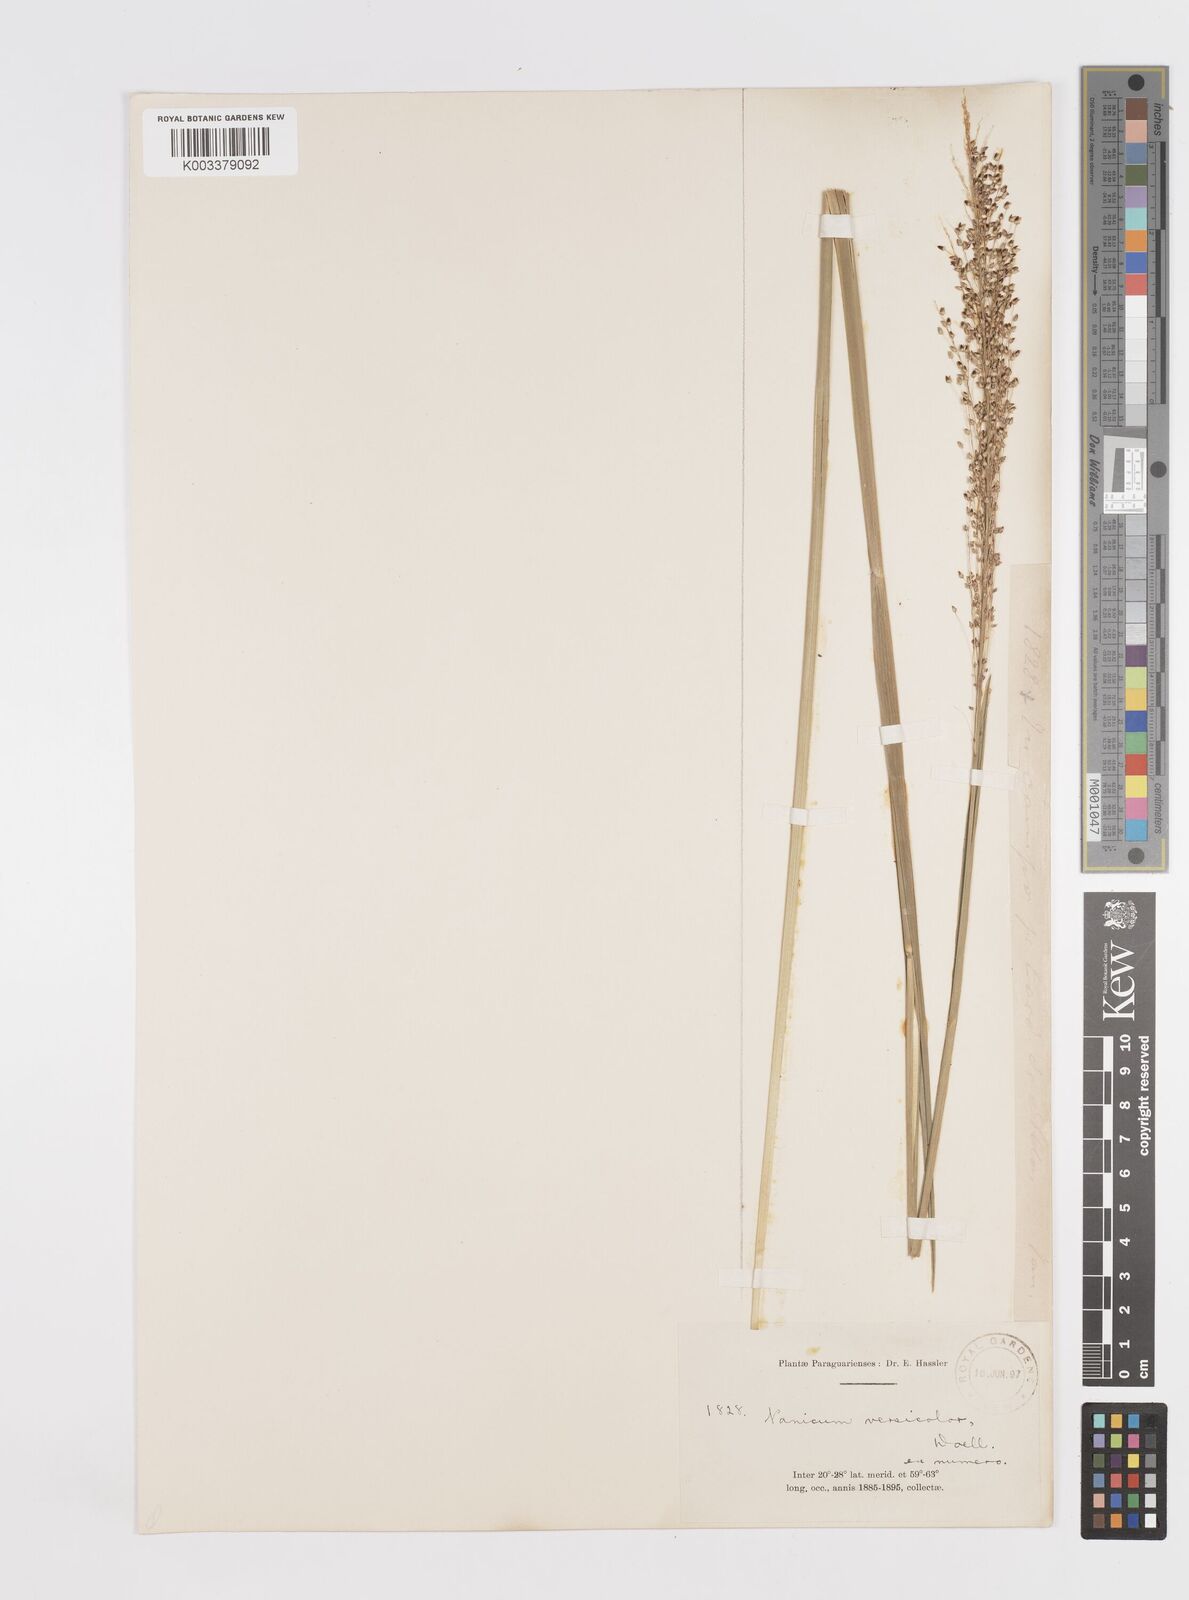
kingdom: Plantae
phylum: Tracheophyta
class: Liliopsida
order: Poales
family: Poaceae
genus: Otachyrium
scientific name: Otachyrium versicolor
